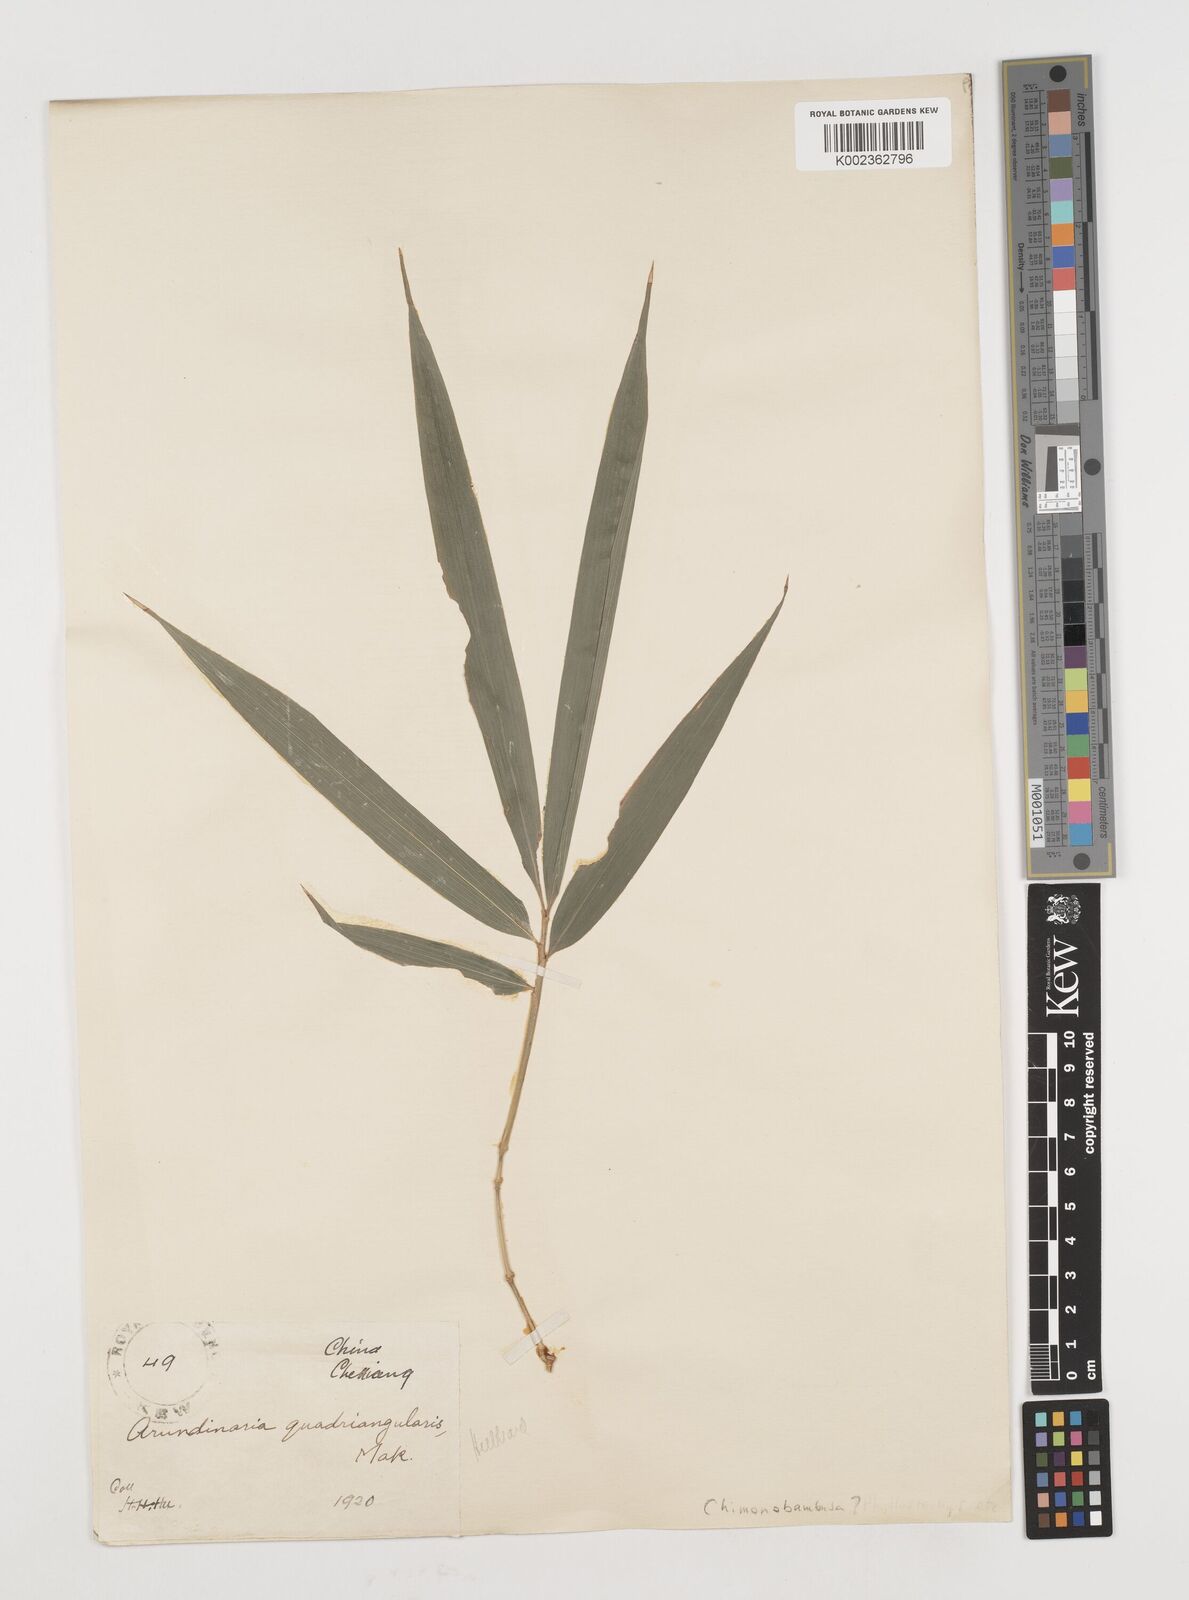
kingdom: Plantae
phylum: Tracheophyta
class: Liliopsida
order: Poales
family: Poaceae
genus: Chimonobambusa
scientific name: Chimonobambusa quadrangularis
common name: Square-stemmed bamboo
